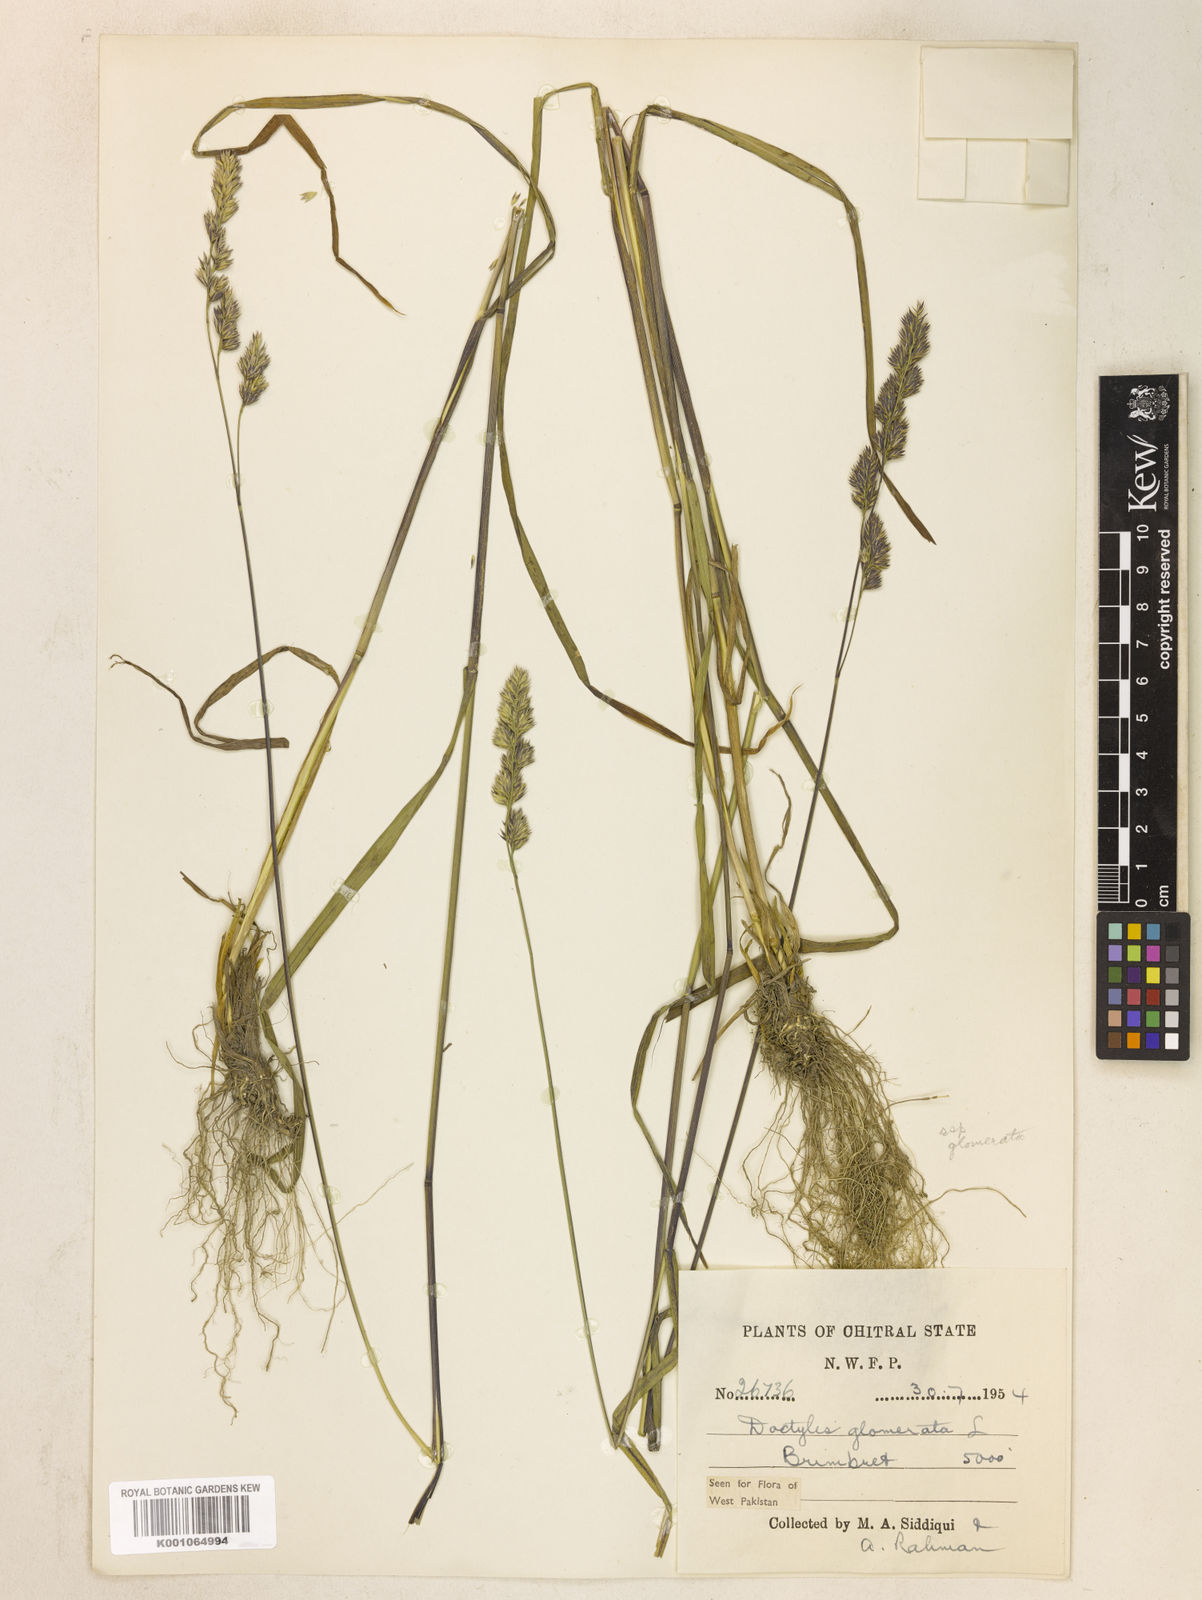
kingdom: Plantae
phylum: Tracheophyta
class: Liliopsida
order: Poales
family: Poaceae
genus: Dactylis
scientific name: Dactylis glomerata
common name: Orchardgrass
